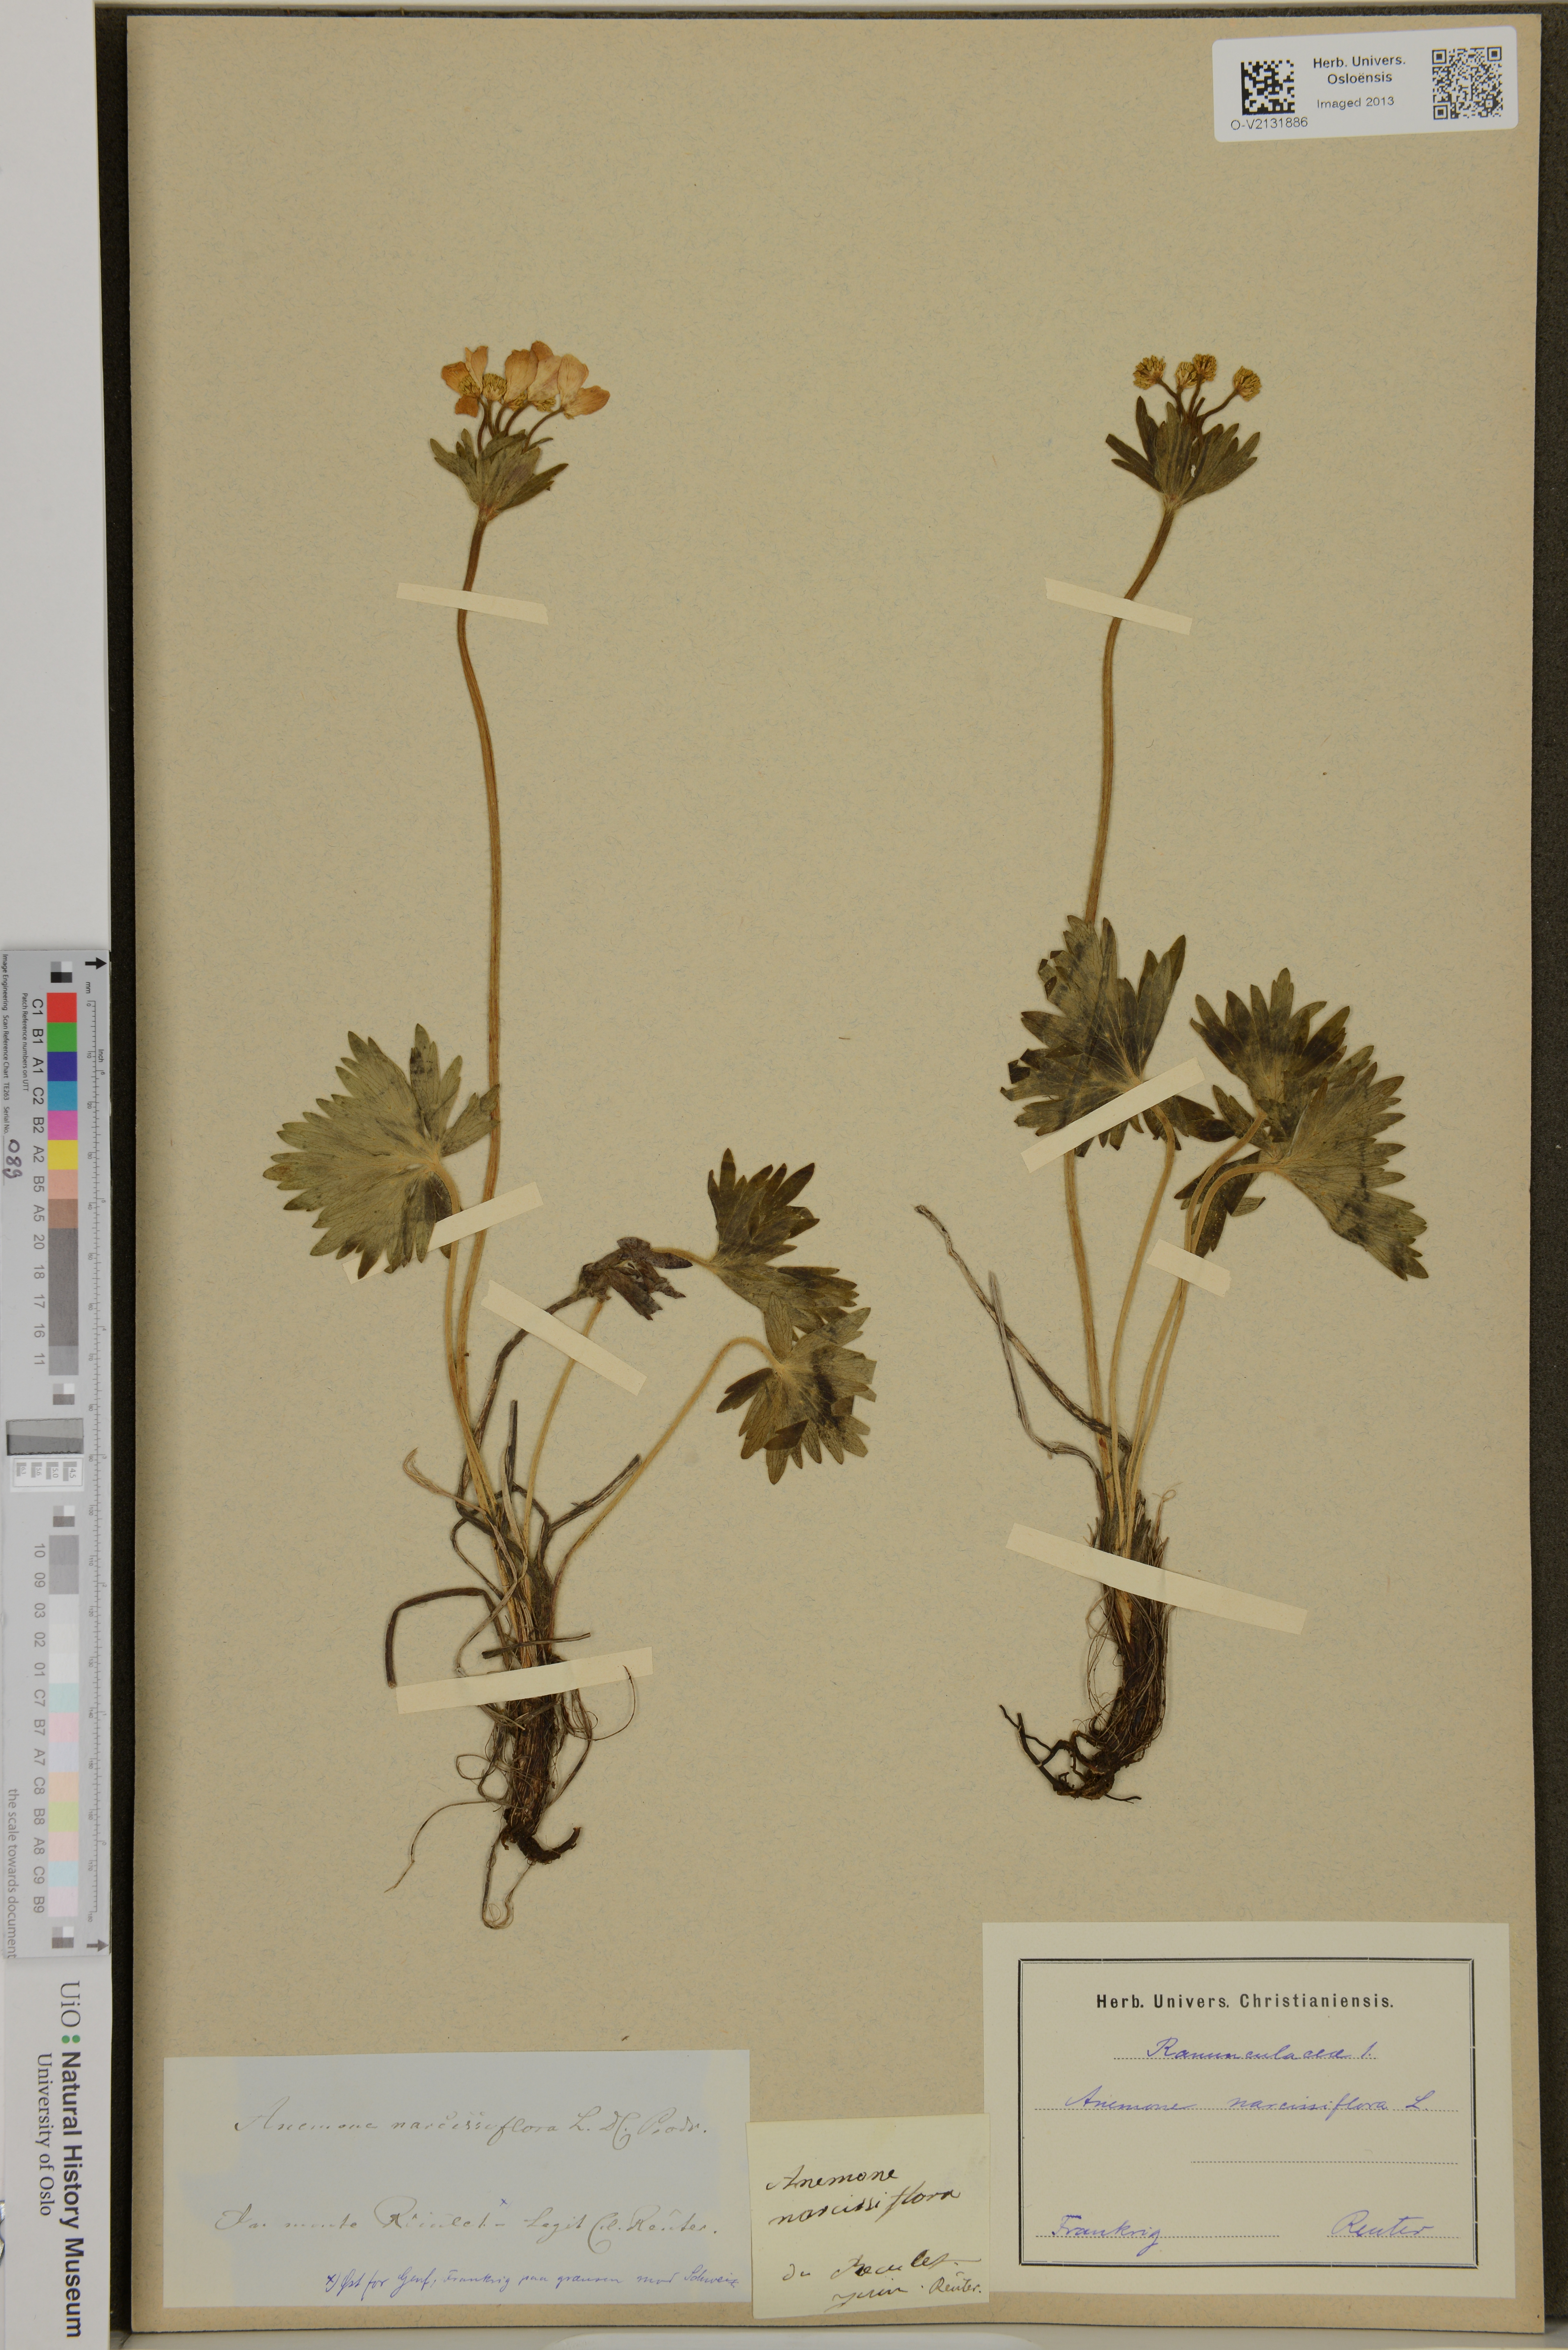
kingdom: Plantae
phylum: Tracheophyta
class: Magnoliopsida
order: Ranunculales
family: Ranunculaceae
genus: Anemone
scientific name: Anemone multifida
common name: Bird's-foot anemone
